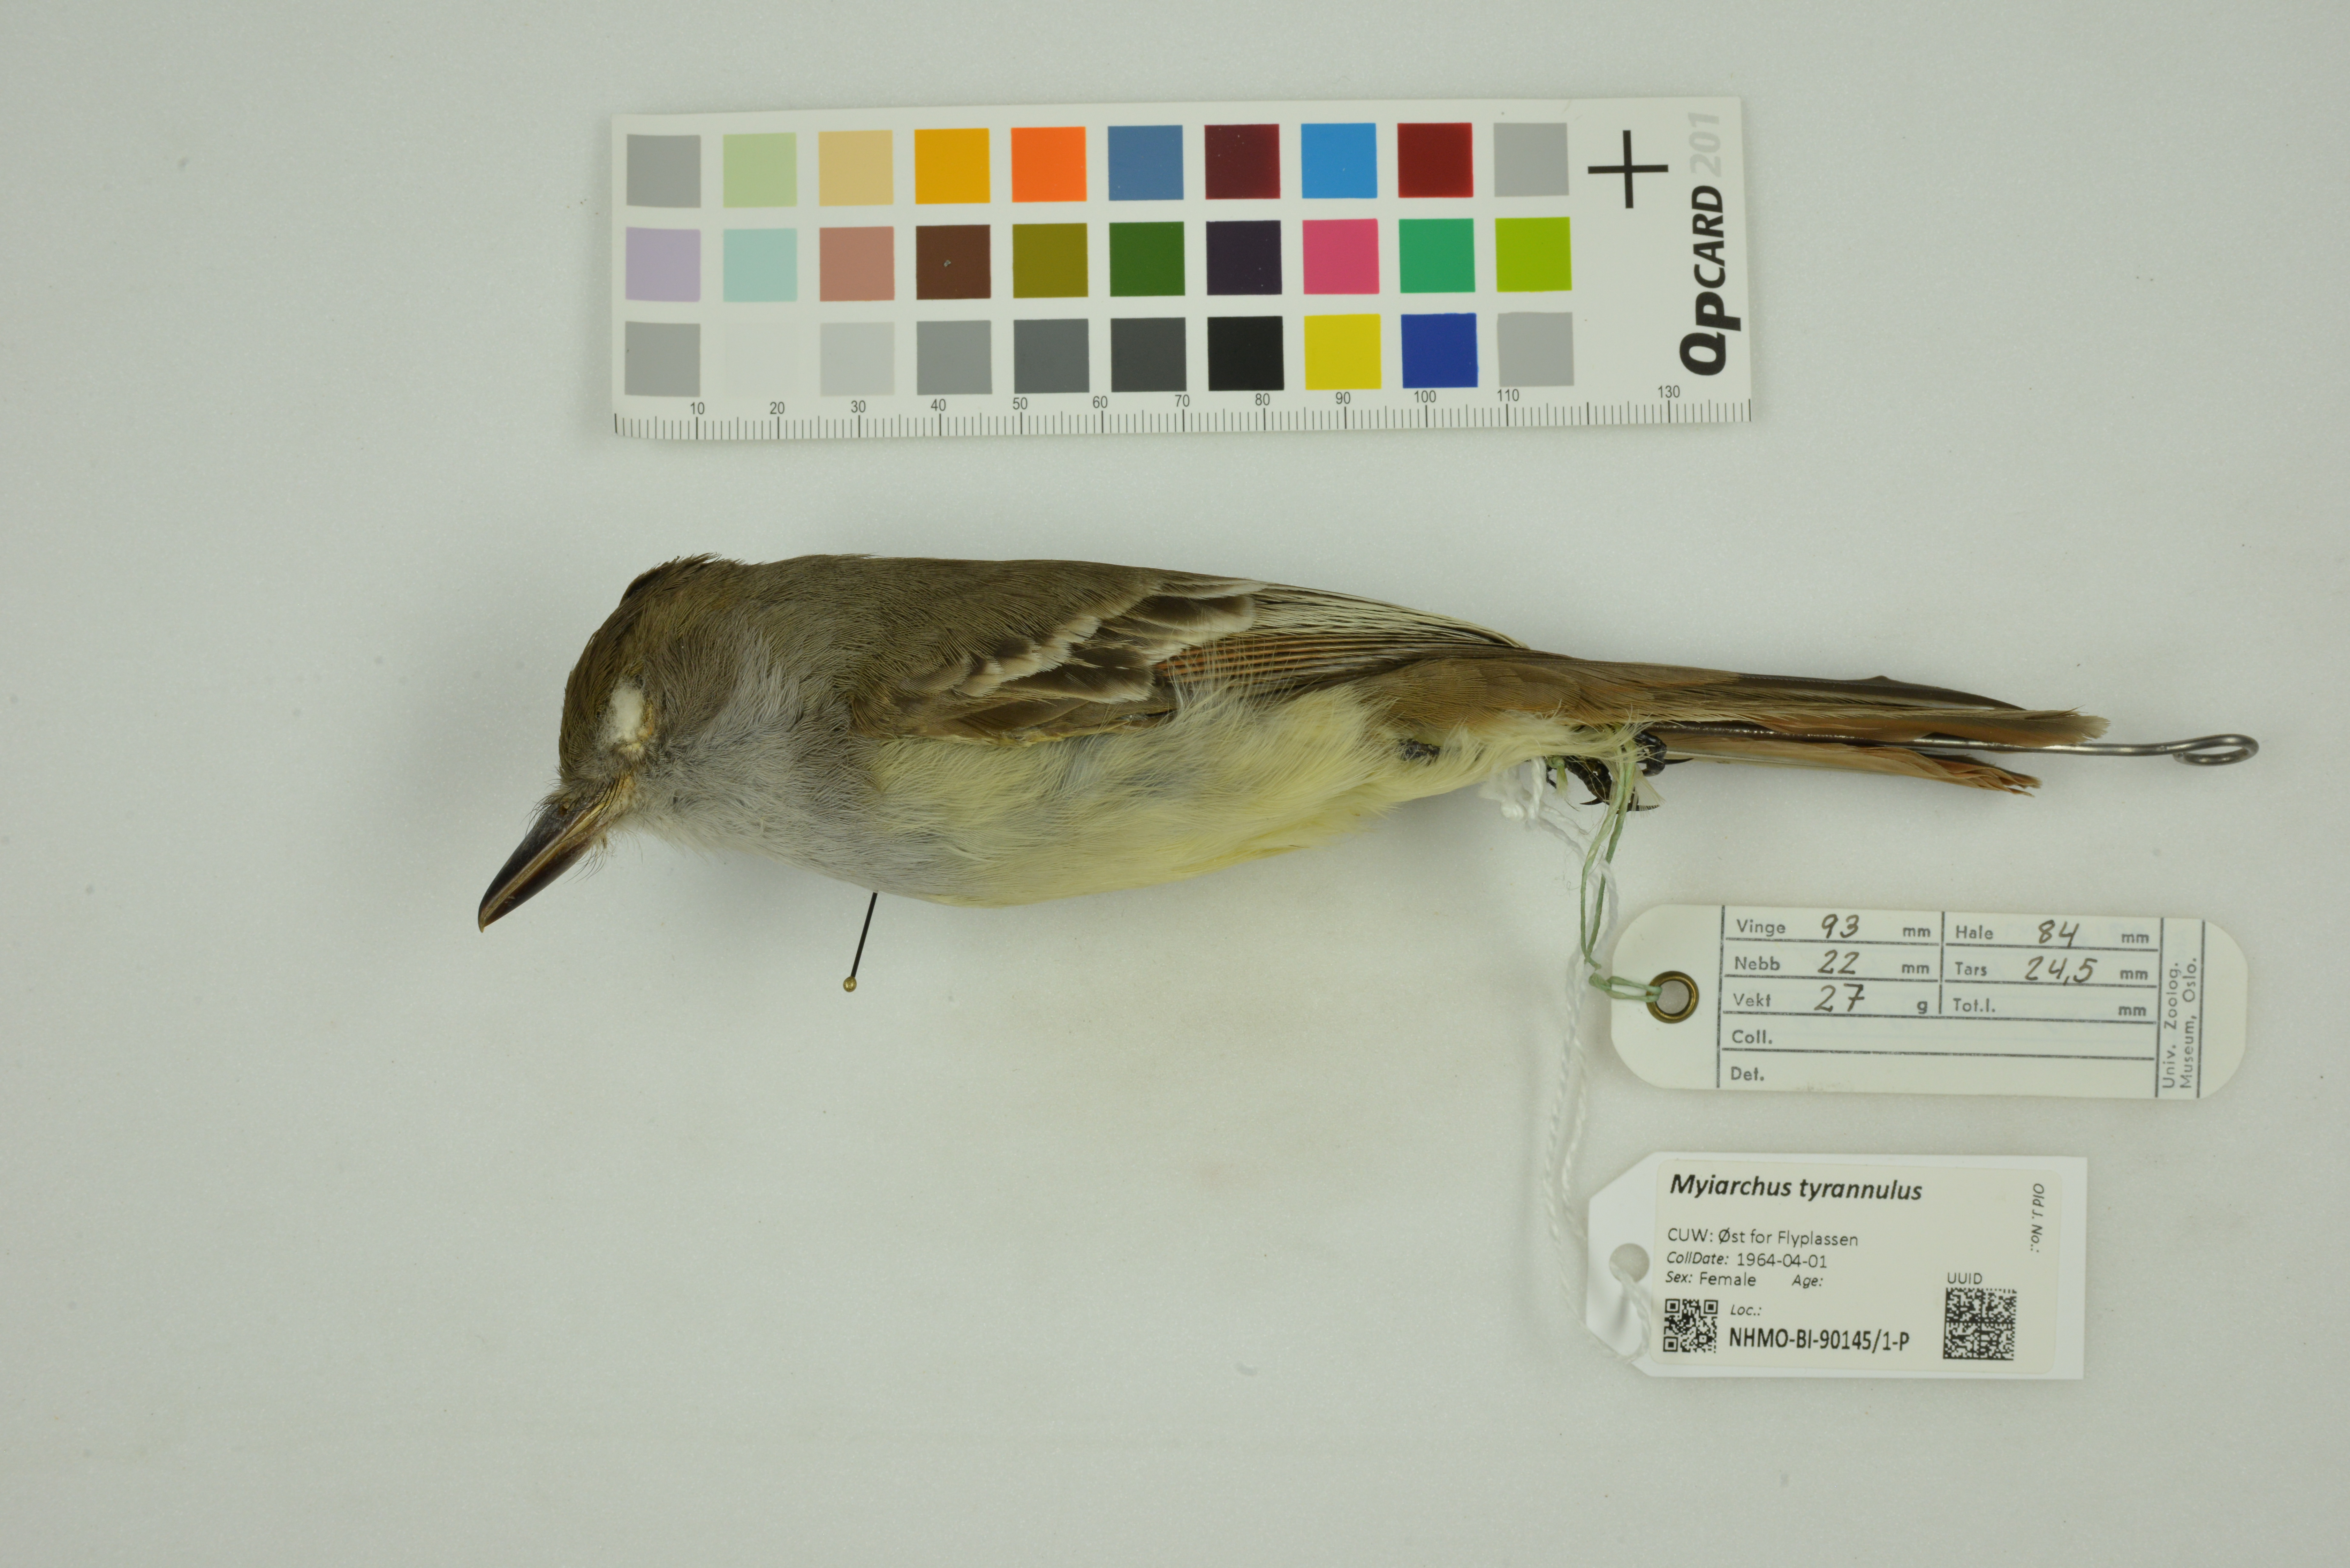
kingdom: Animalia
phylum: Chordata
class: Aves
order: Passeriformes
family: Tyrannidae
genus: Myiarchus
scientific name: Myiarchus tyrannulus
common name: Brown-crested flycatcher
